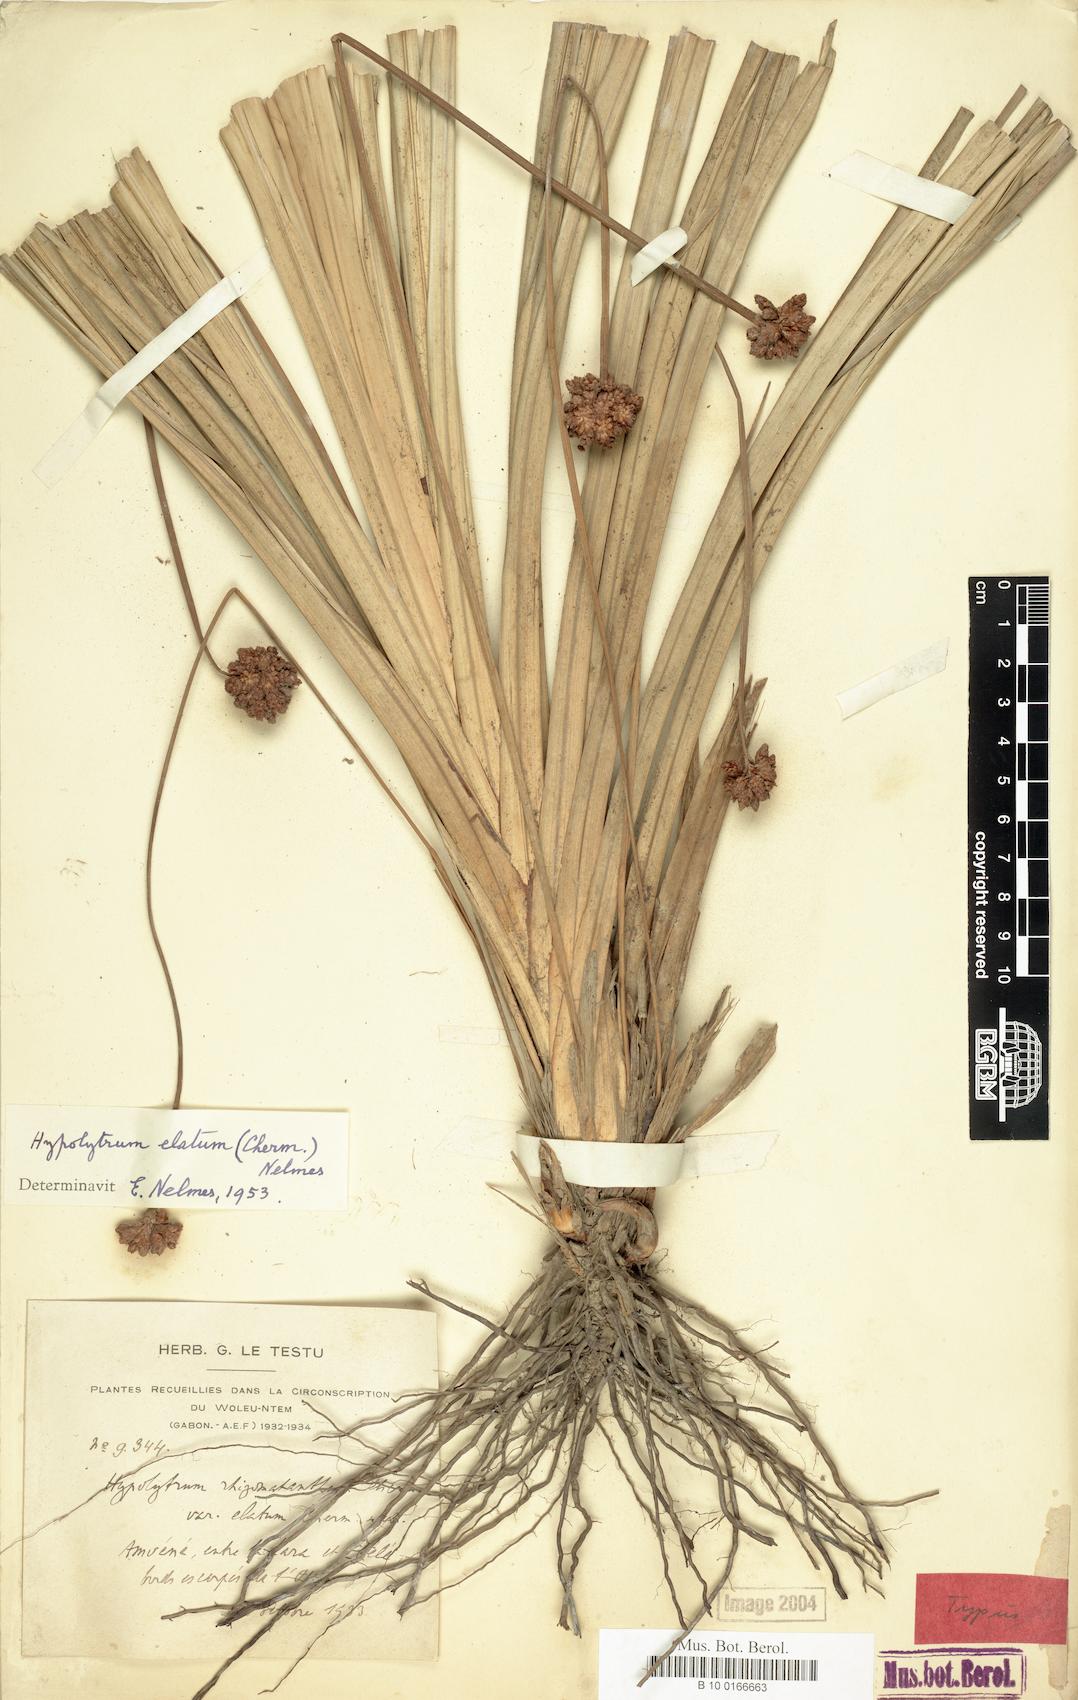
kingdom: Plantae
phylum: Tracheophyta
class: Liliopsida
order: Poales
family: Cyperaceae
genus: Hypolytrum
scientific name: Hypolytrum scaberrimum
